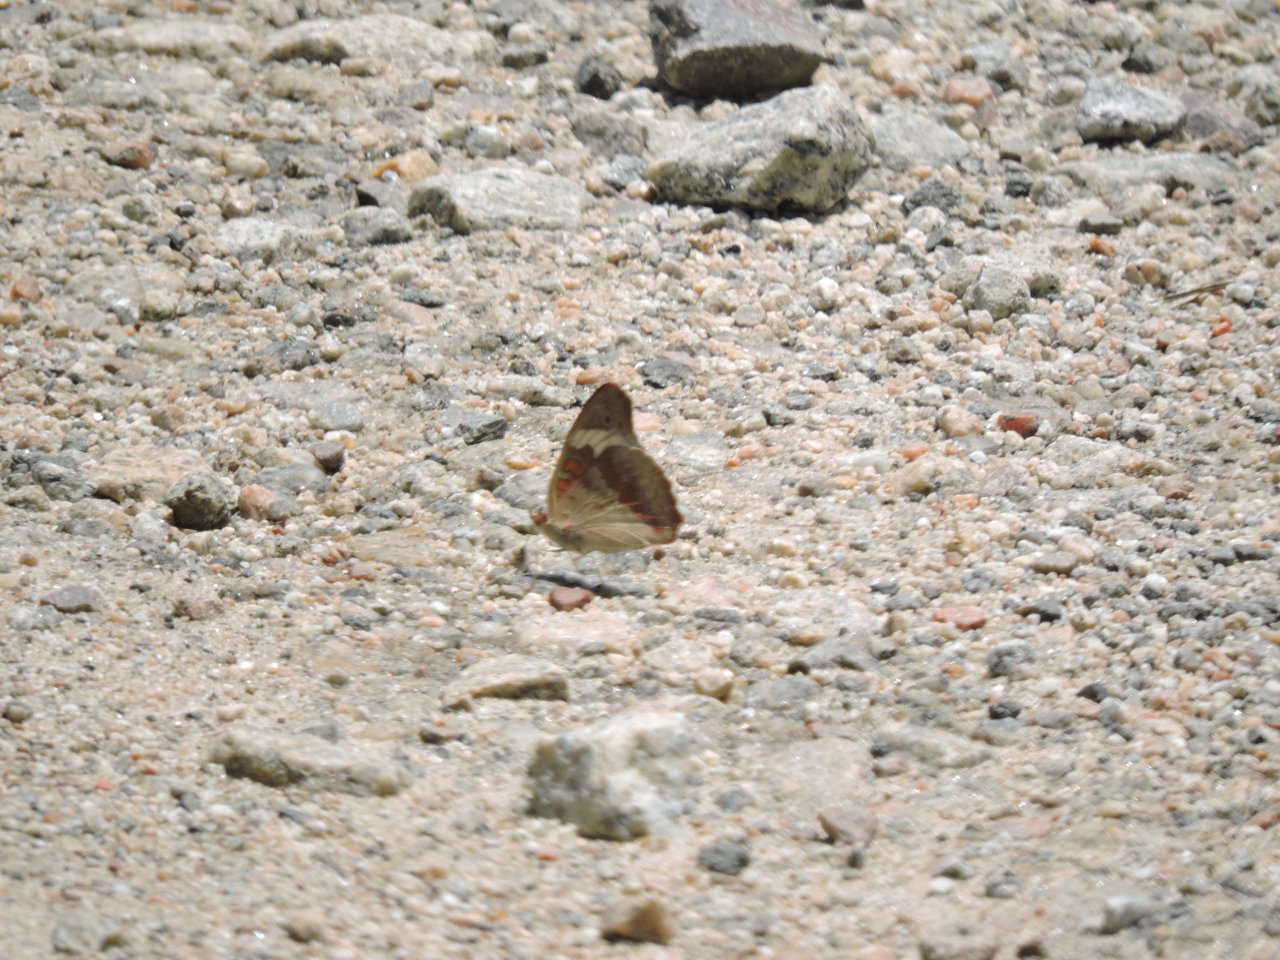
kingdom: Animalia
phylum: Arthropoda
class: Insecta
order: Lepidoptera
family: Nymphalidae
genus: Junonia
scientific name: Junonia coenia
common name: Common Buckeye
